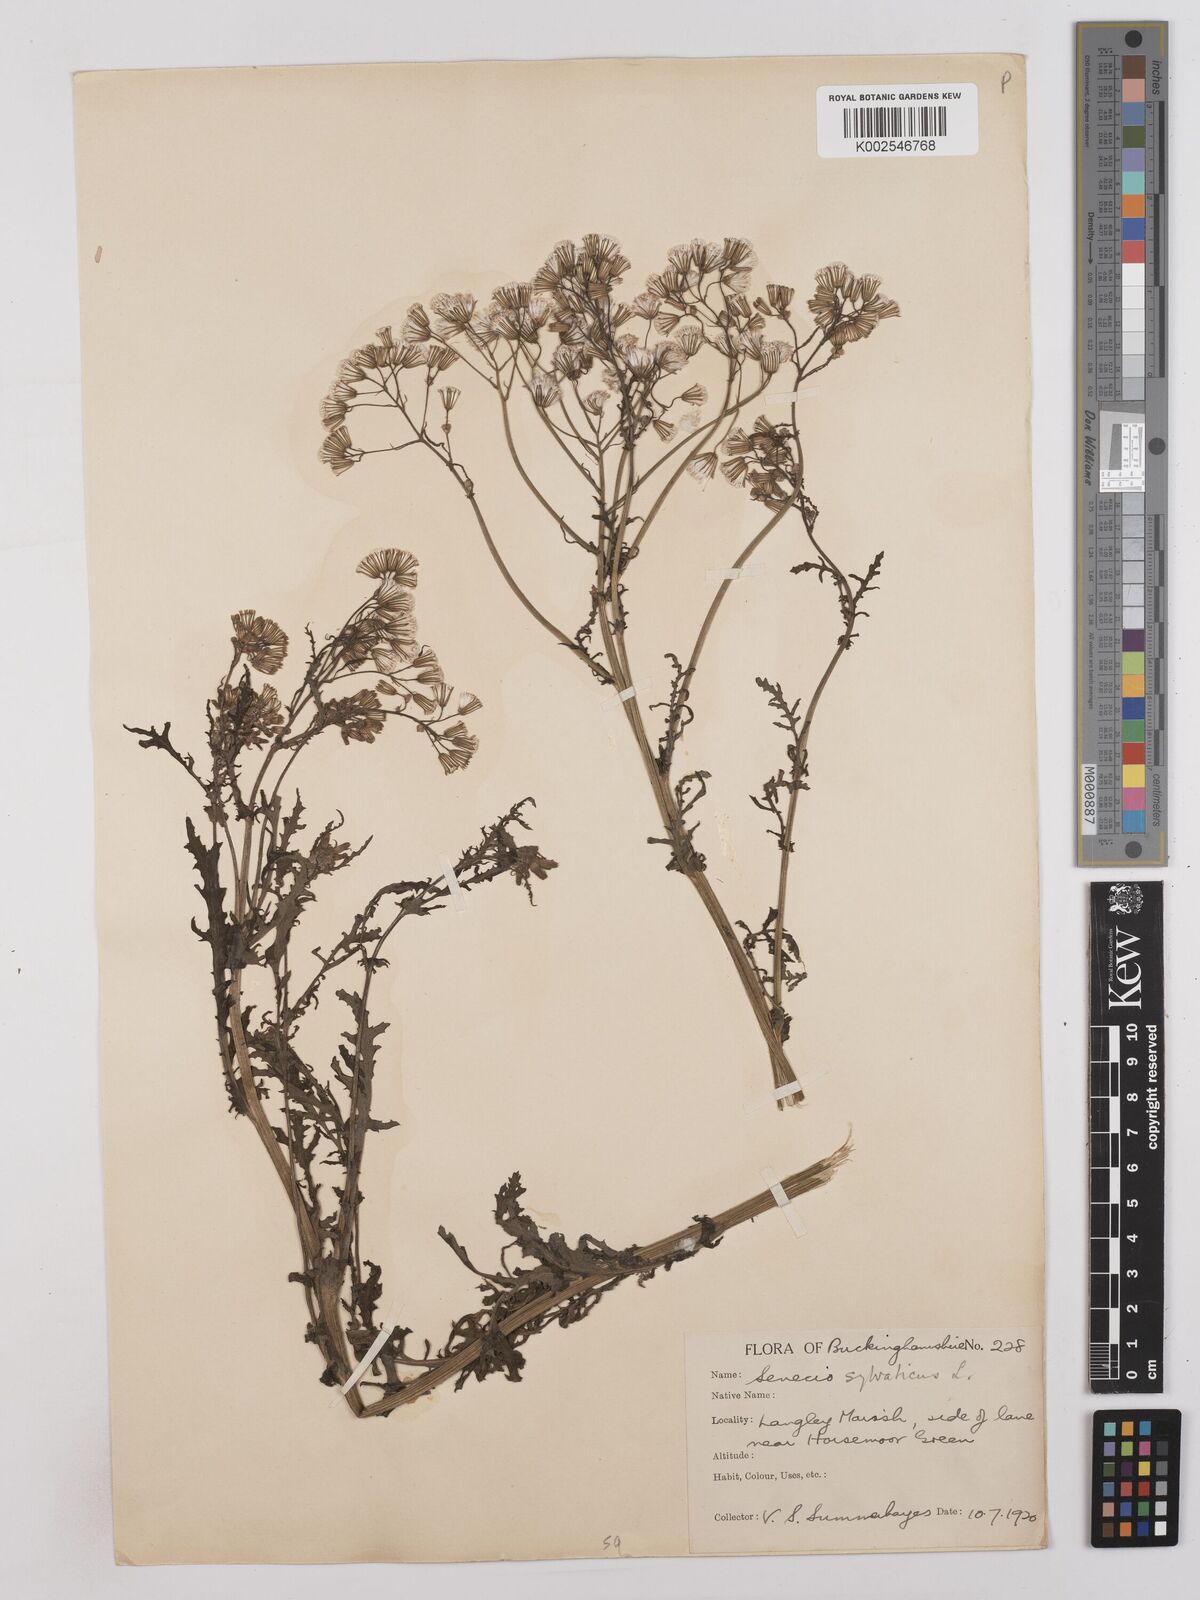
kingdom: Plantae
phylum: Tracheophyta
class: Magnoliopsida
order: Asterales
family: Asteraceae
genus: Senecio
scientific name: Senecio sylvaticus
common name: Woodland ragwort
